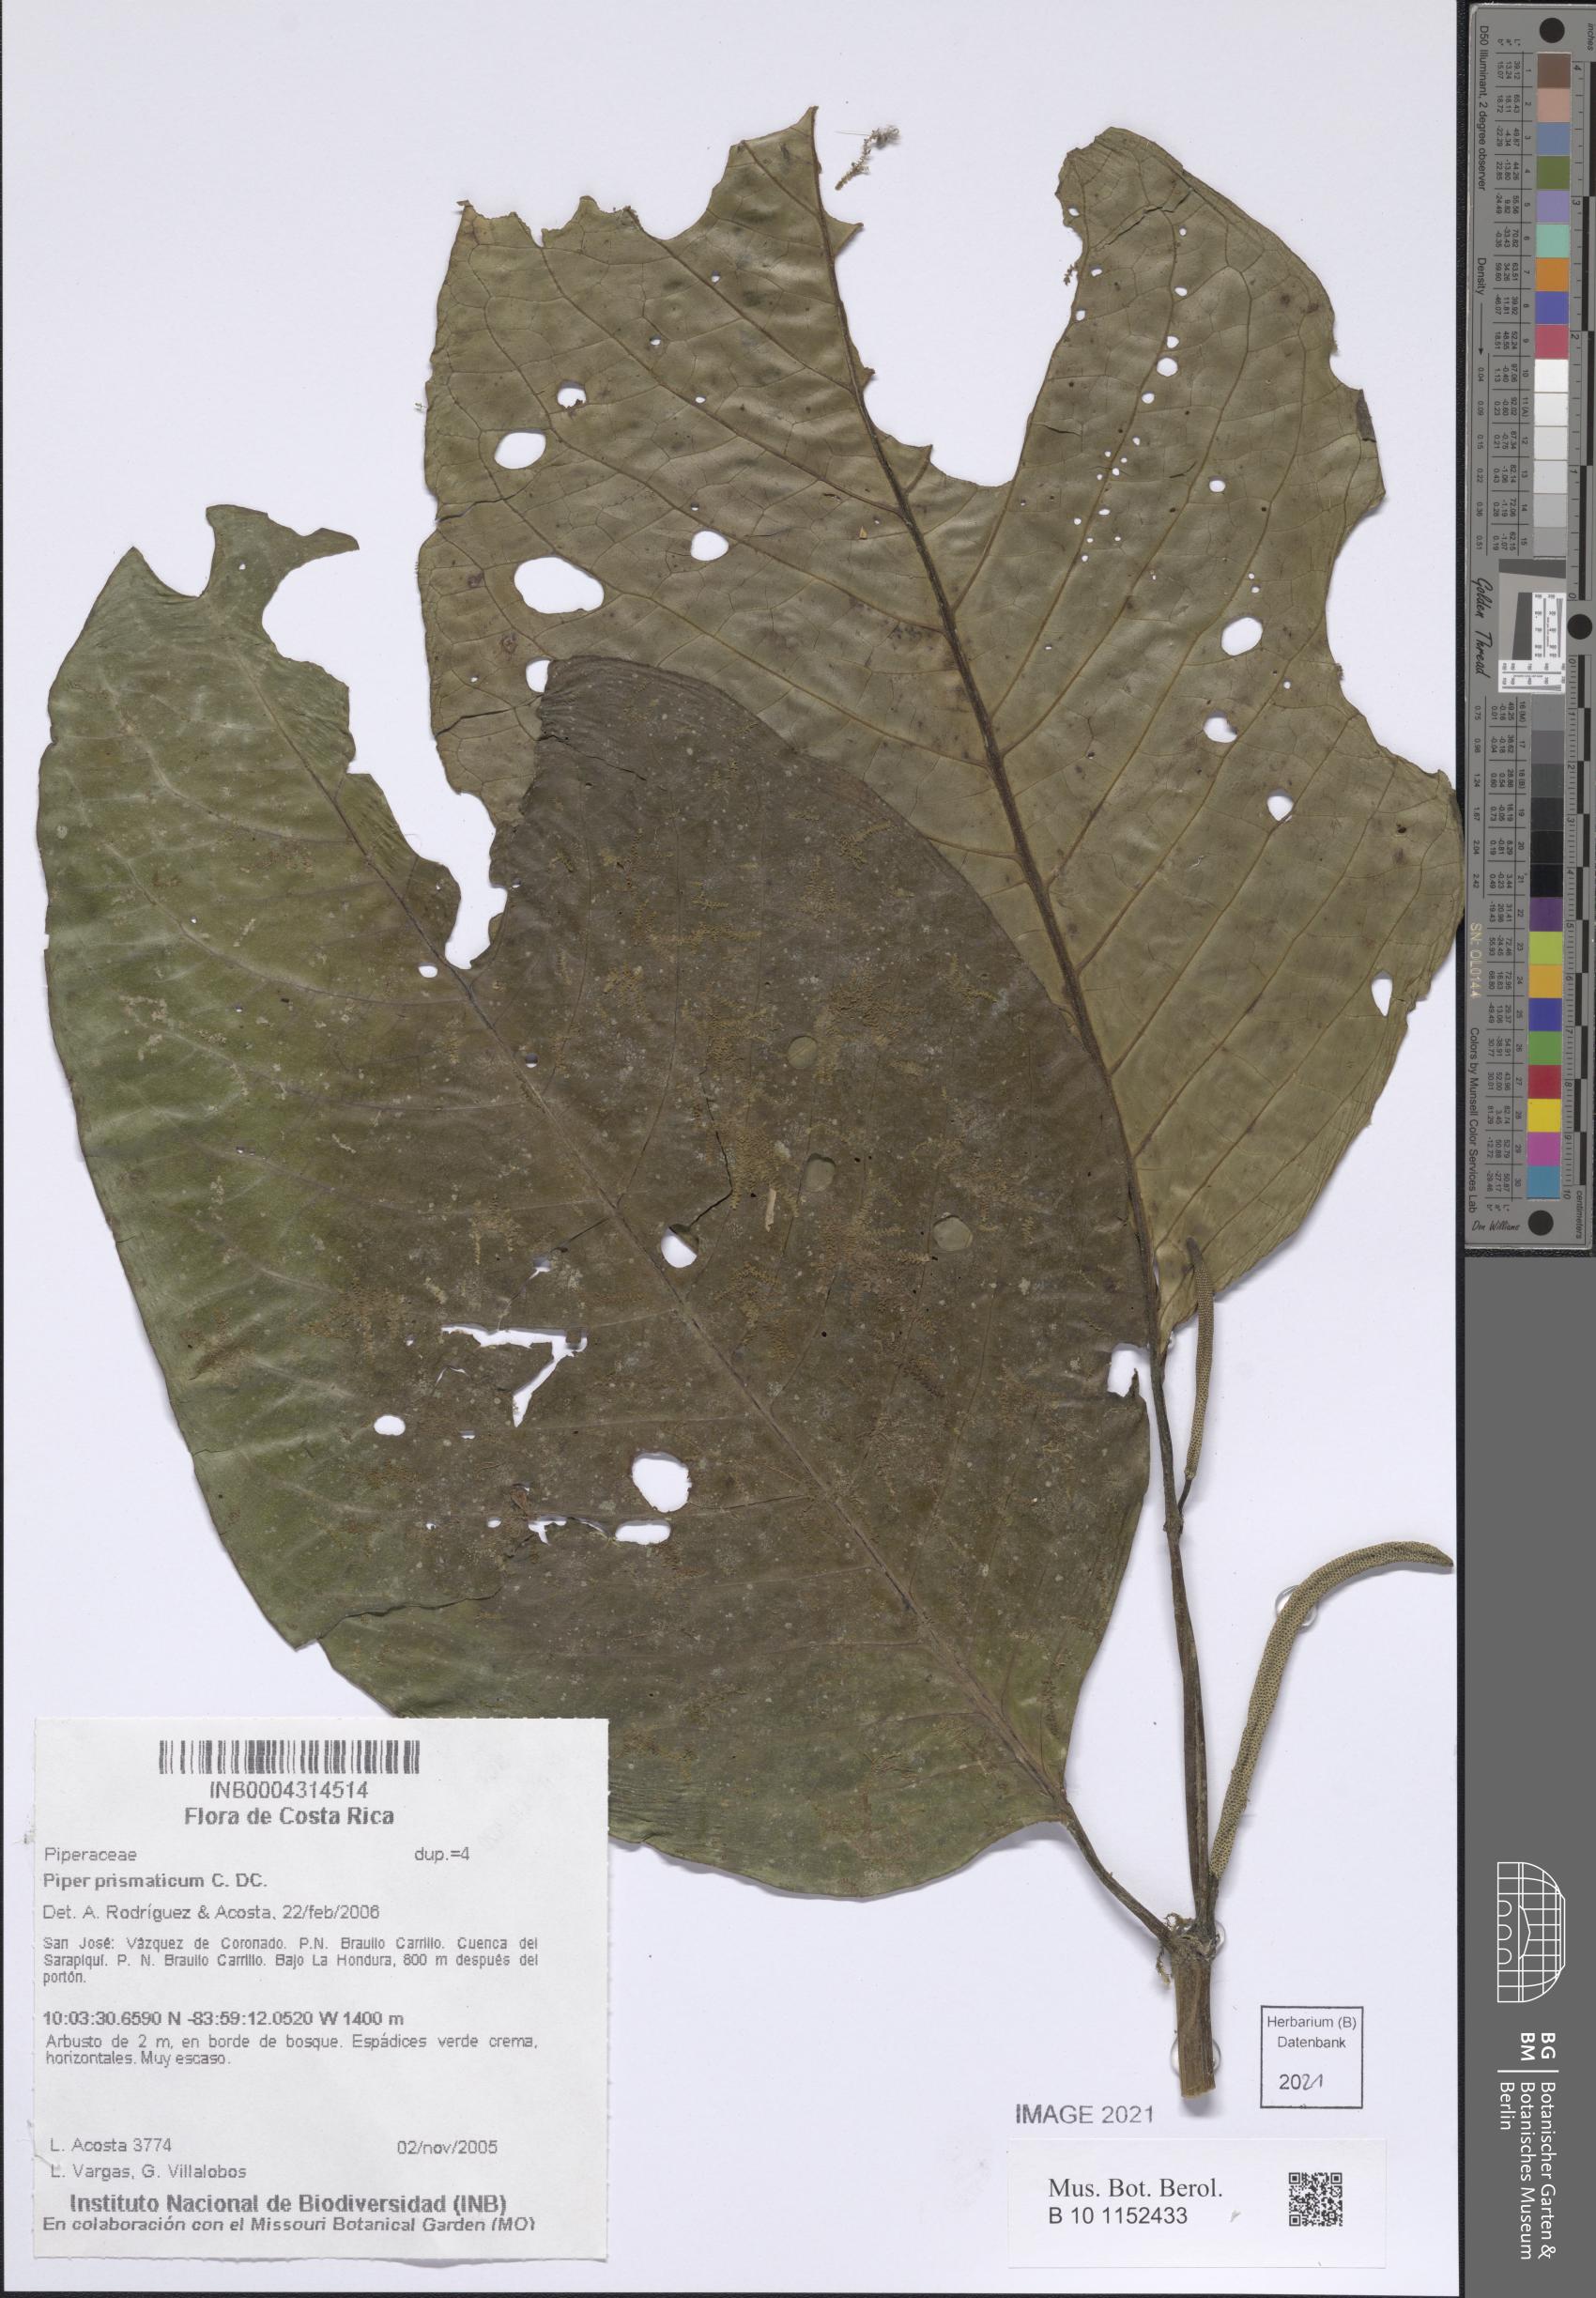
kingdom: Plantae
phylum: Tracheophyta
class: Magnoliopsida
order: Piperales
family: Piperaceae
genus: Piper
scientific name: Piper prismaticum
